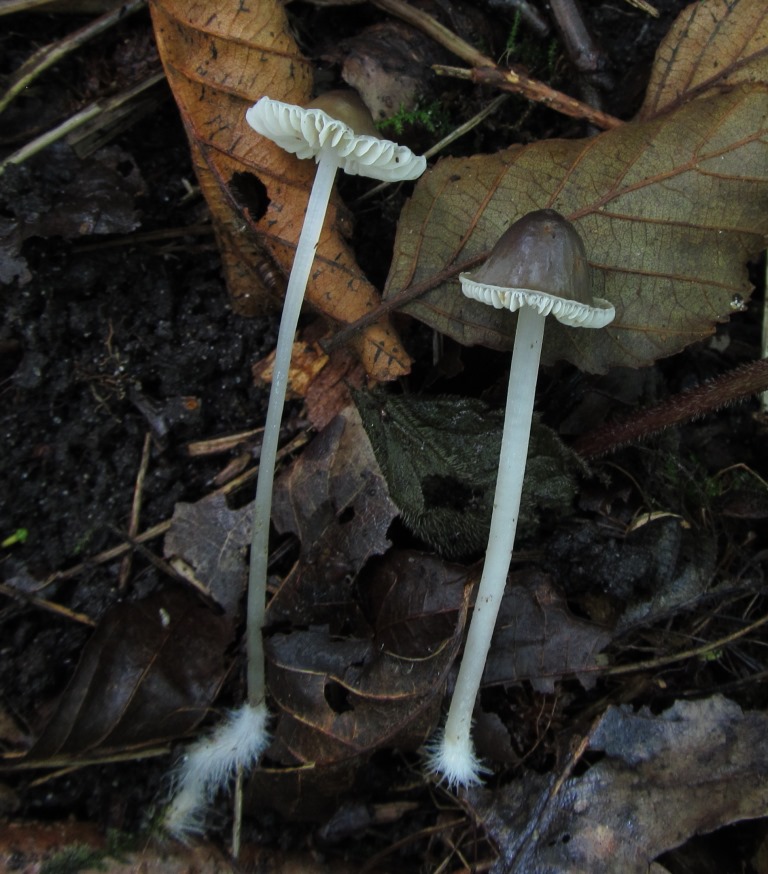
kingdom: Fungi
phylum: Basidiomycota
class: Agaricomycetes
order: Agaricales
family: Mycenaceae
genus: Mycena
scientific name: Mycena vitilis
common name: blankstokket huesvamp
